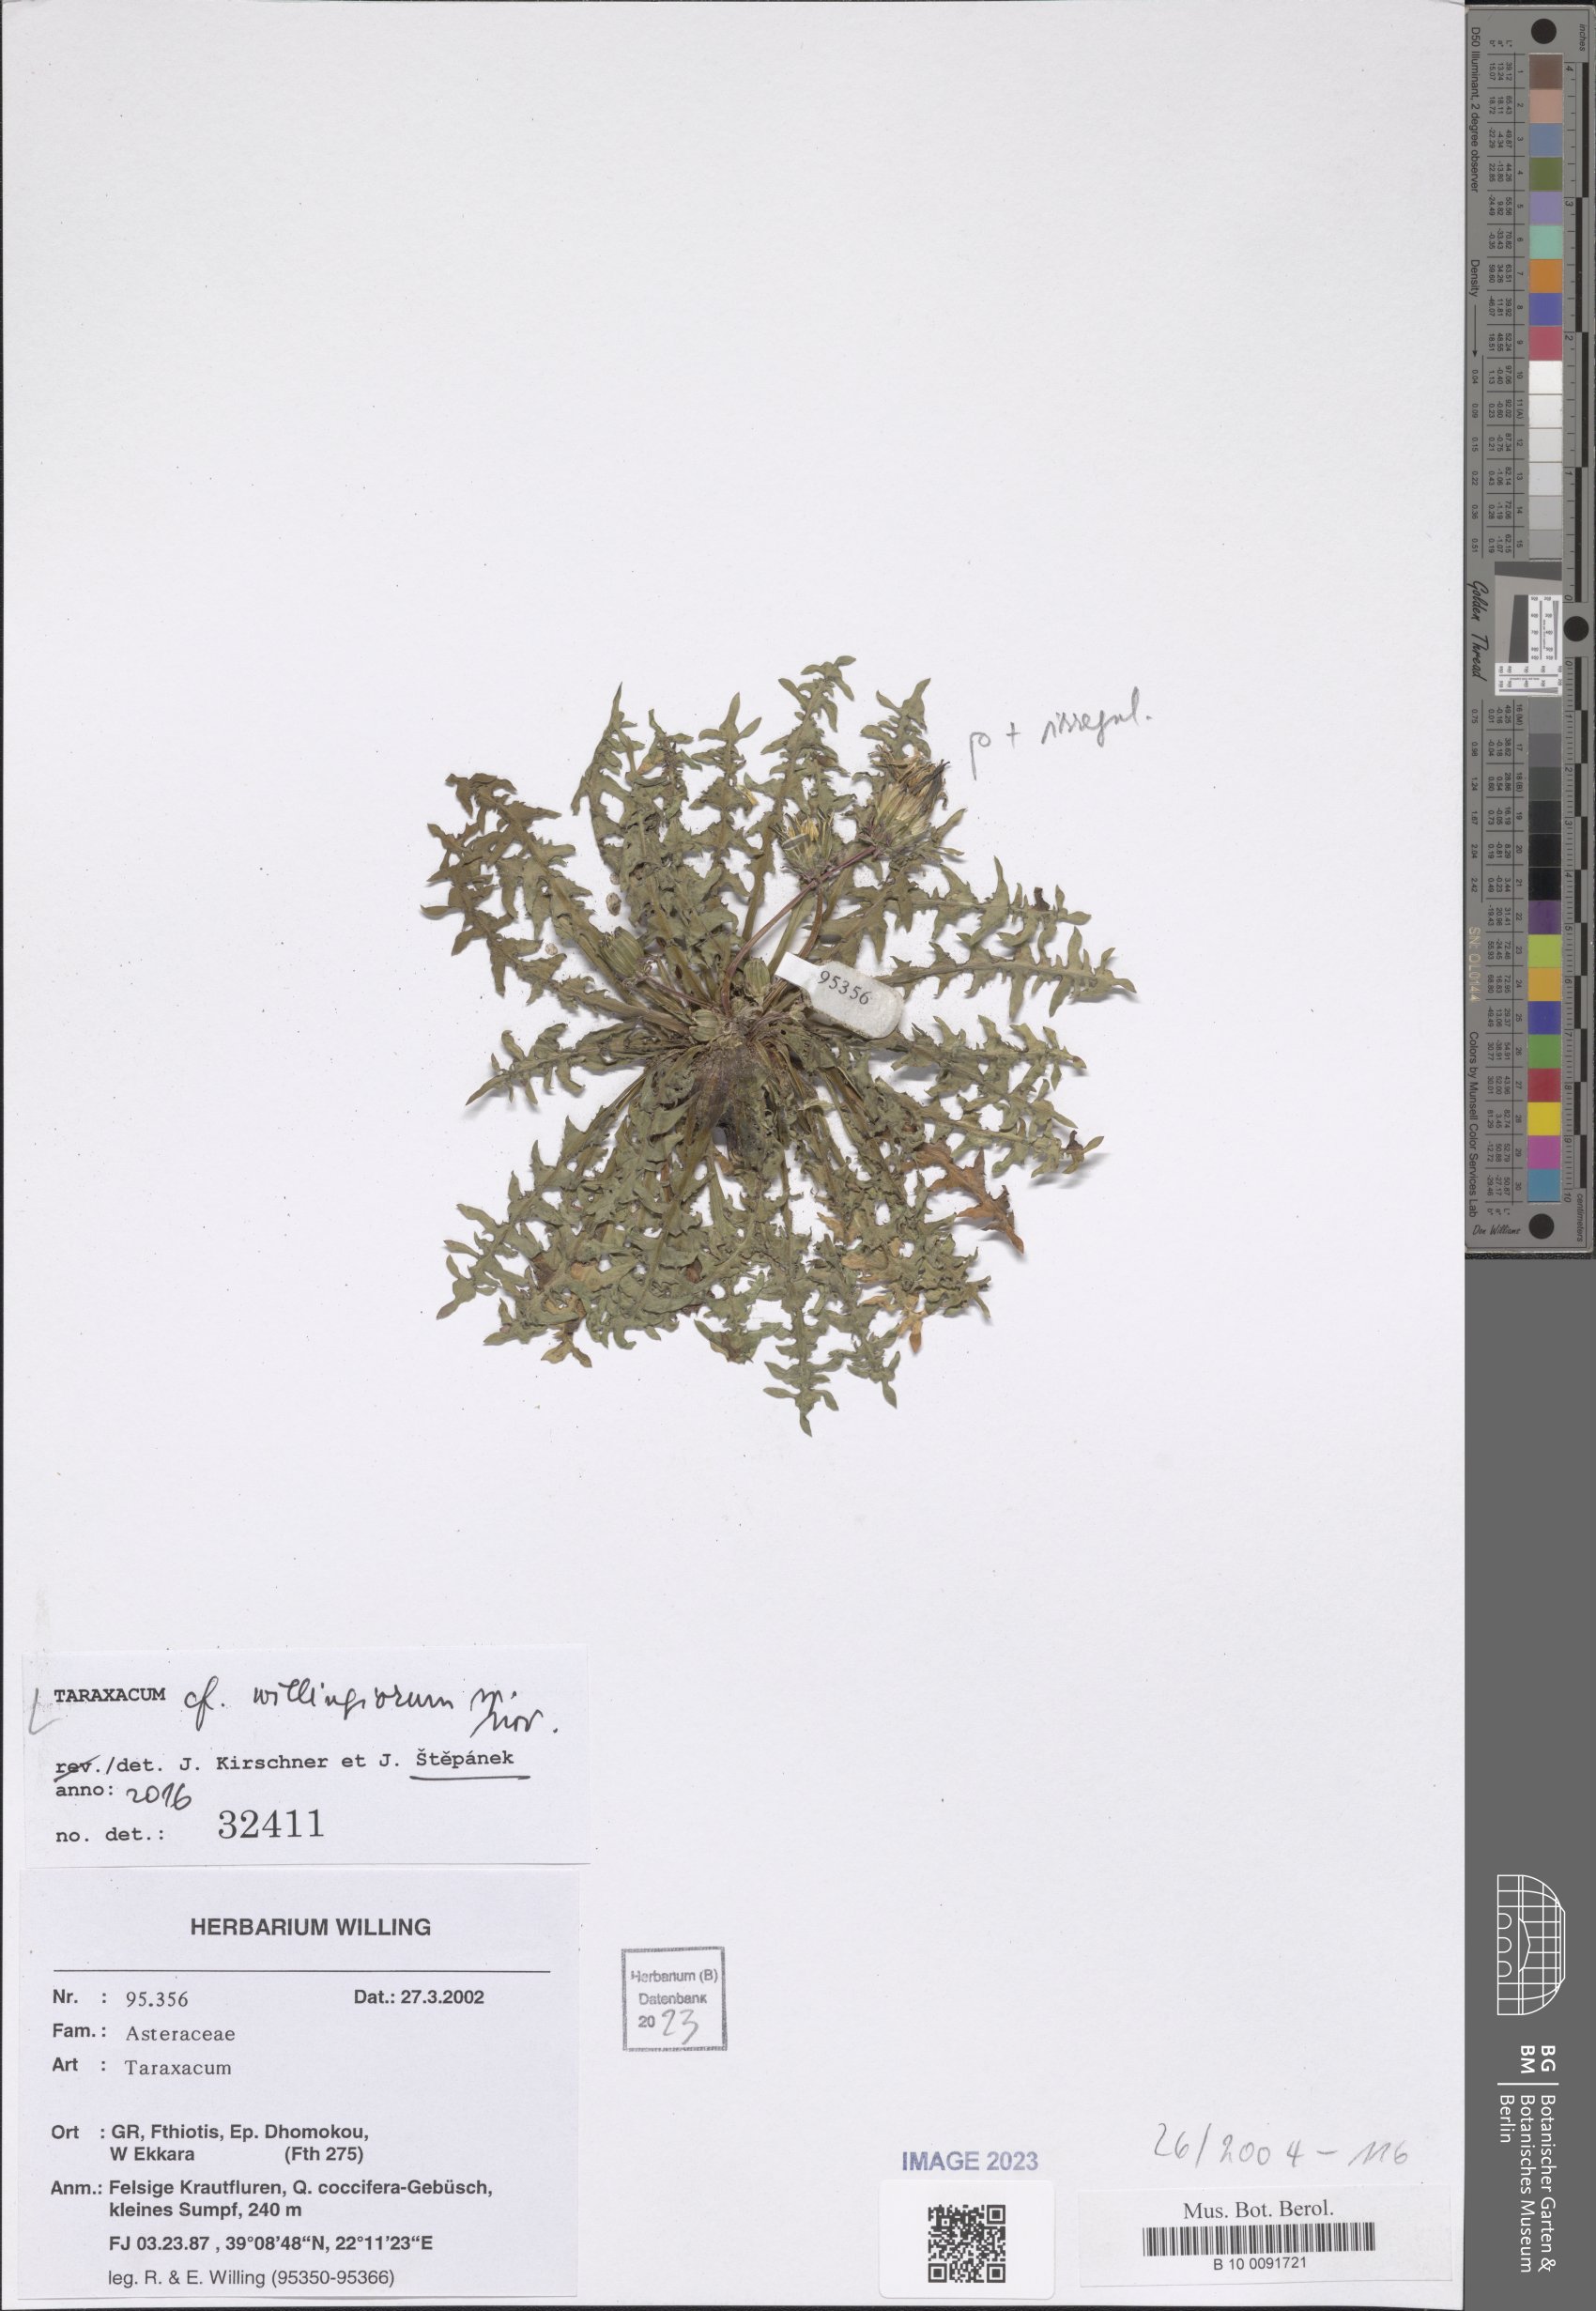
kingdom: Plantae
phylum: Tracheophyta
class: Magnoliopsida
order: Asterales
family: Asteraceae
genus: Taraxacum
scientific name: Taraxacum
